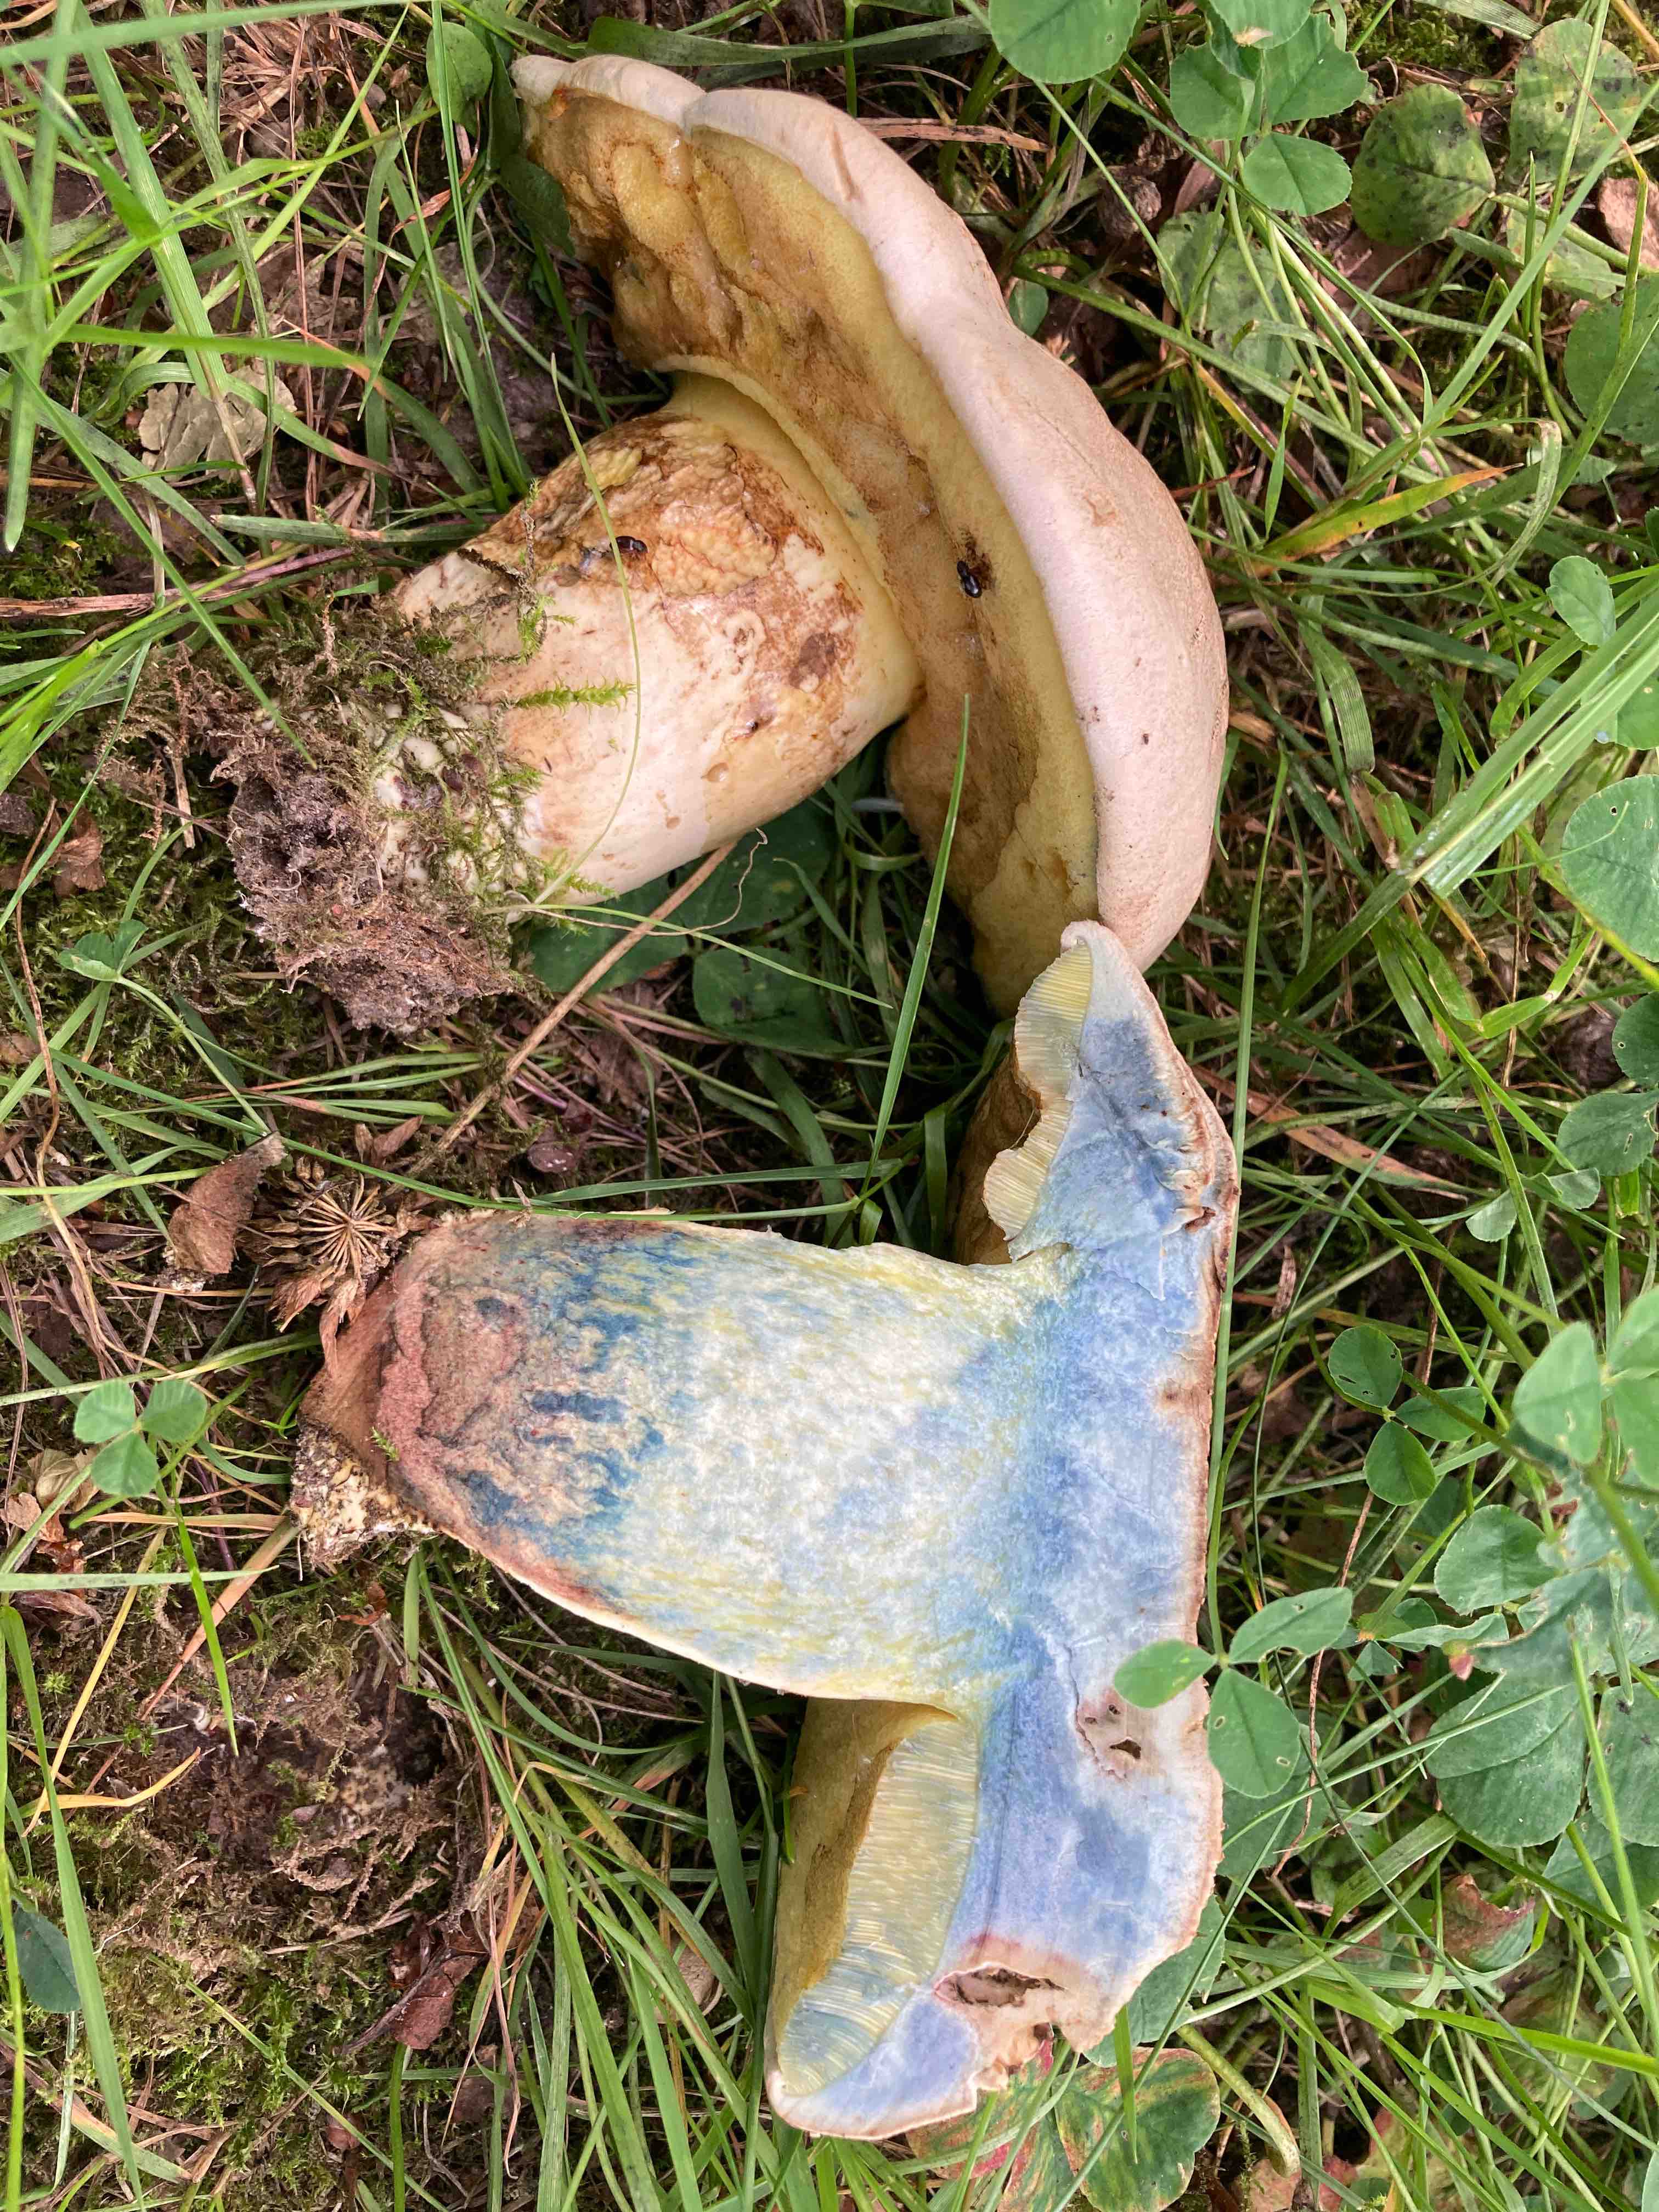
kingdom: Fungi
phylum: Basidiomycota
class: Agaricomycetes
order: Boletales
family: Boletaceae
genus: Caloboletus
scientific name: Caloboletus radicans
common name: rod-rørhat
